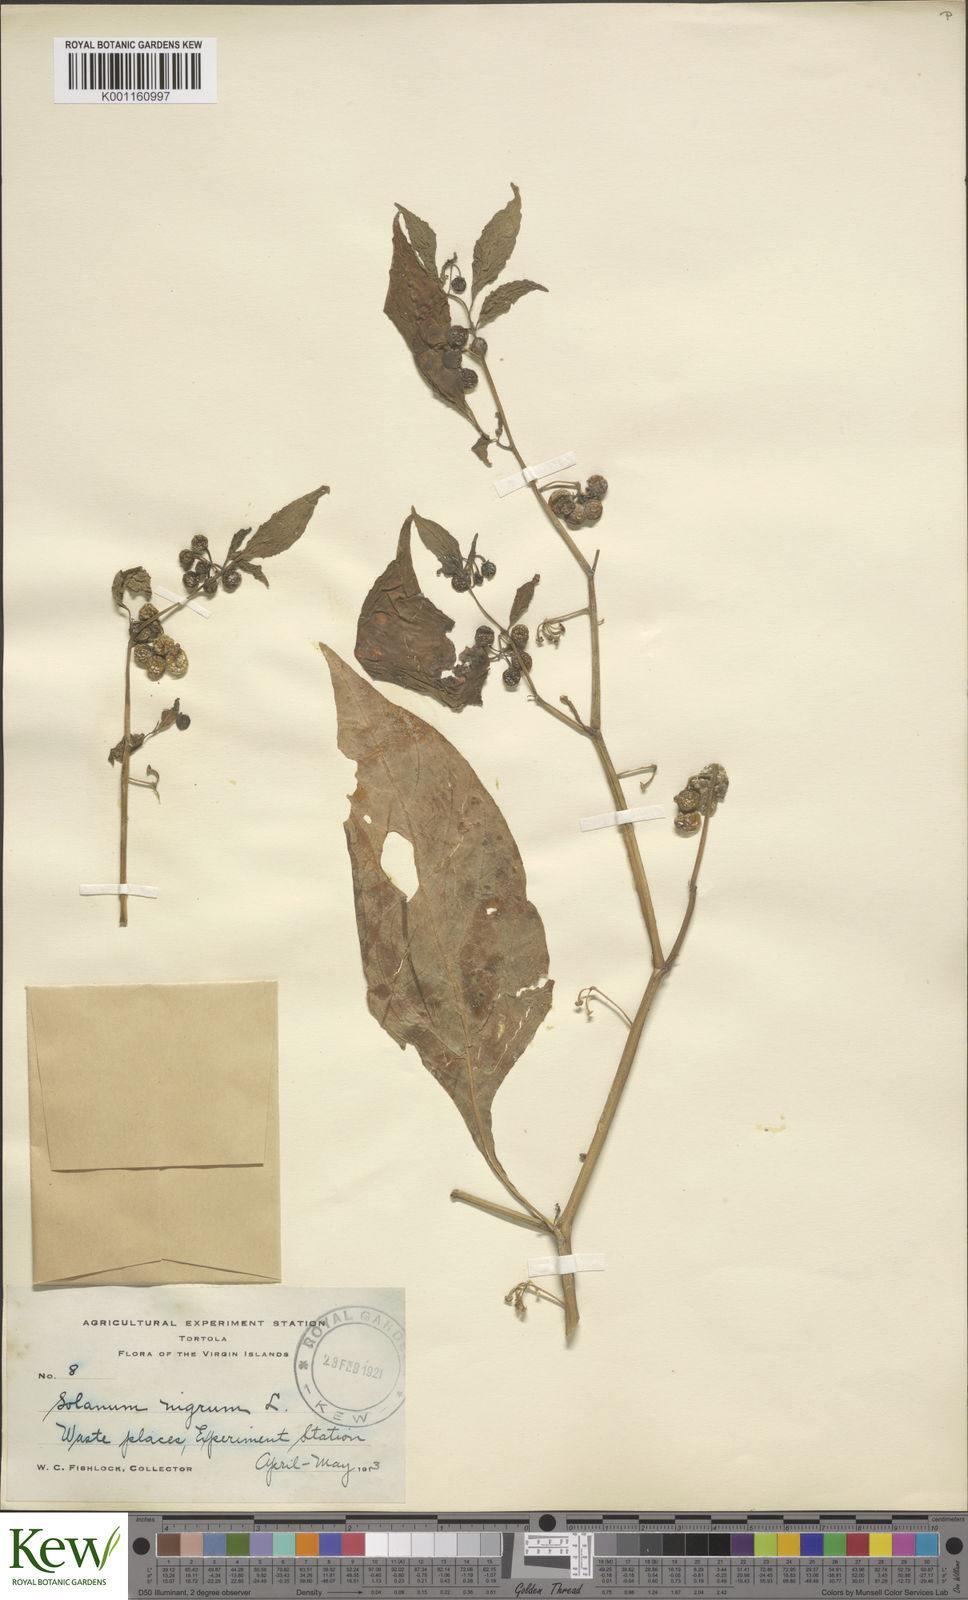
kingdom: Plantae
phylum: Tracheophyta
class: Magnoliopsida
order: Solanales
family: Solanaceae
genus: Solanum
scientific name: Solanum americanum
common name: American black nightshade
